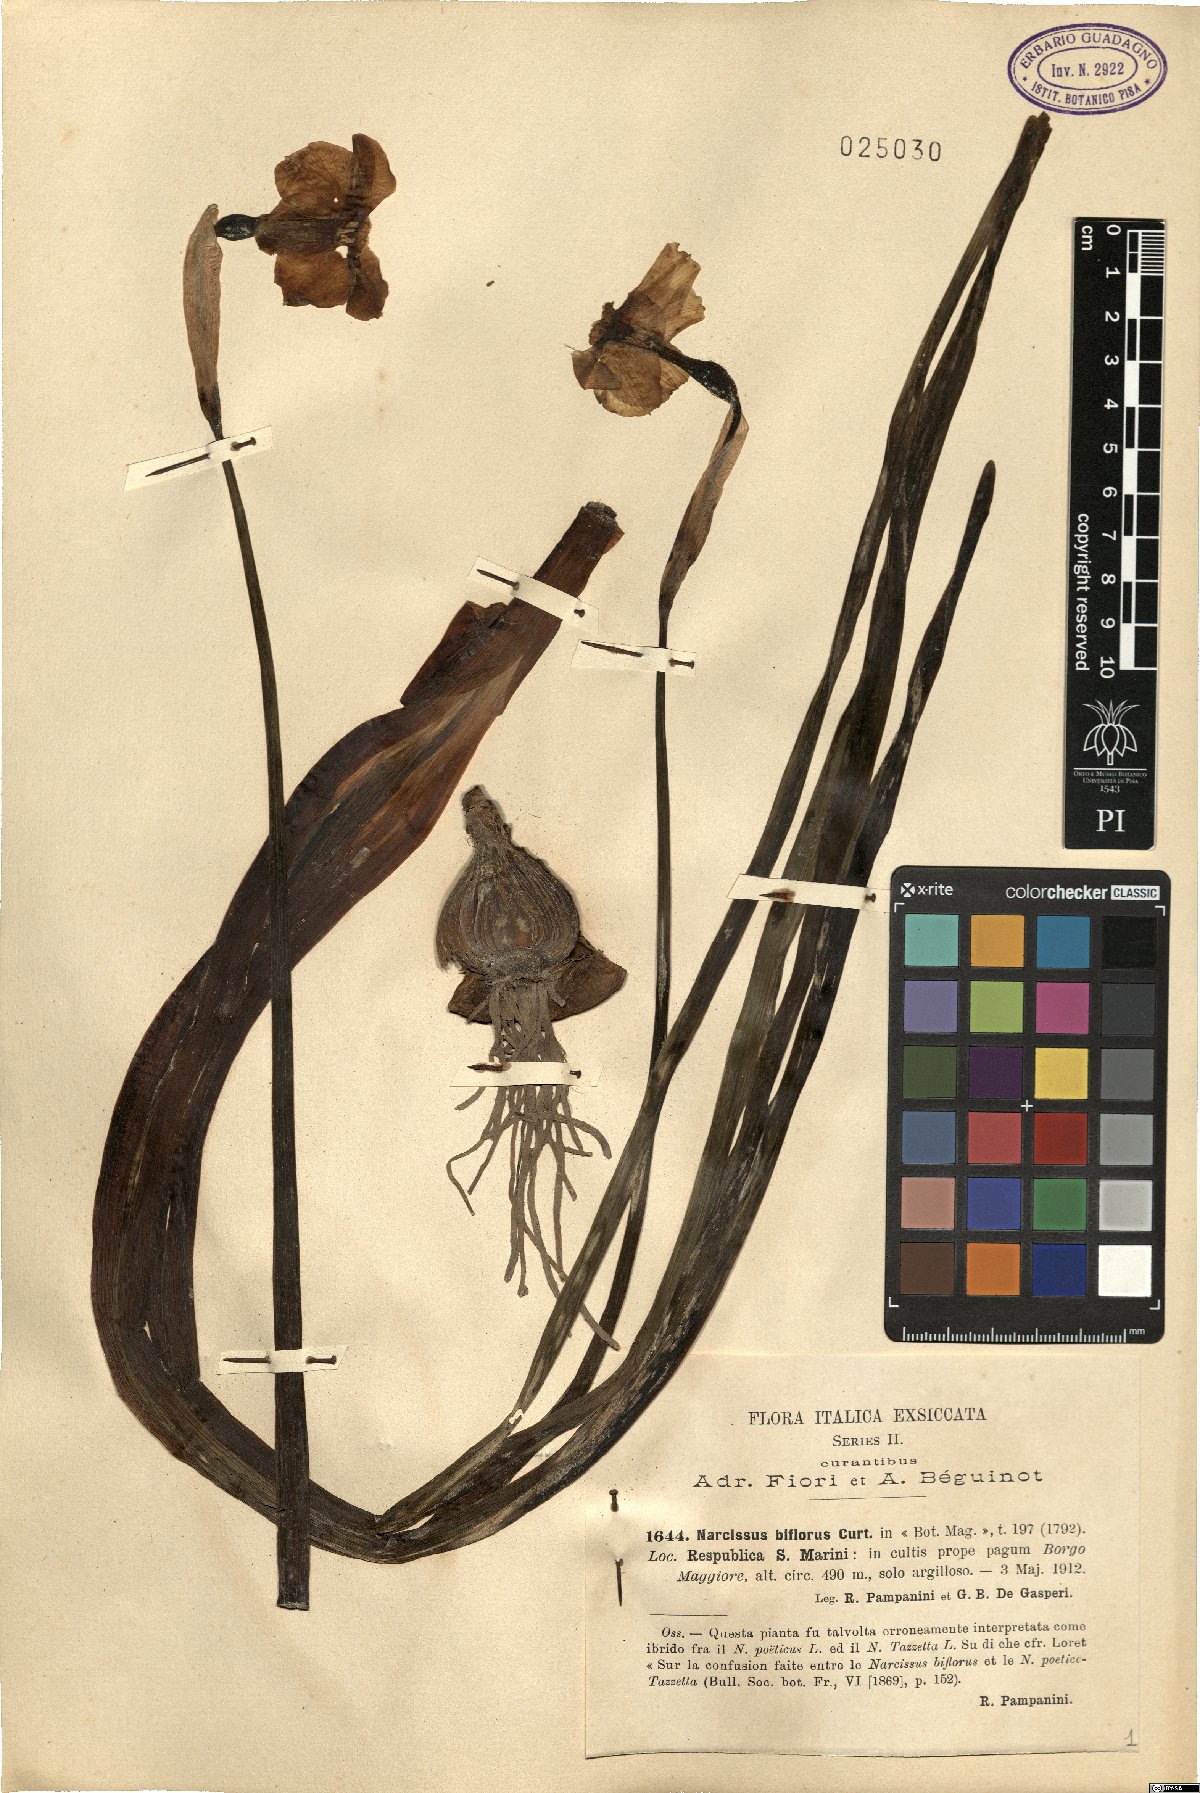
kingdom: Plantae
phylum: Tracheophyta
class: Liliopsida
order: Asparagales
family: Amaryllidaceae
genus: Narcissus
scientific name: Narcissus medioluteus
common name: Primrose-peerless
